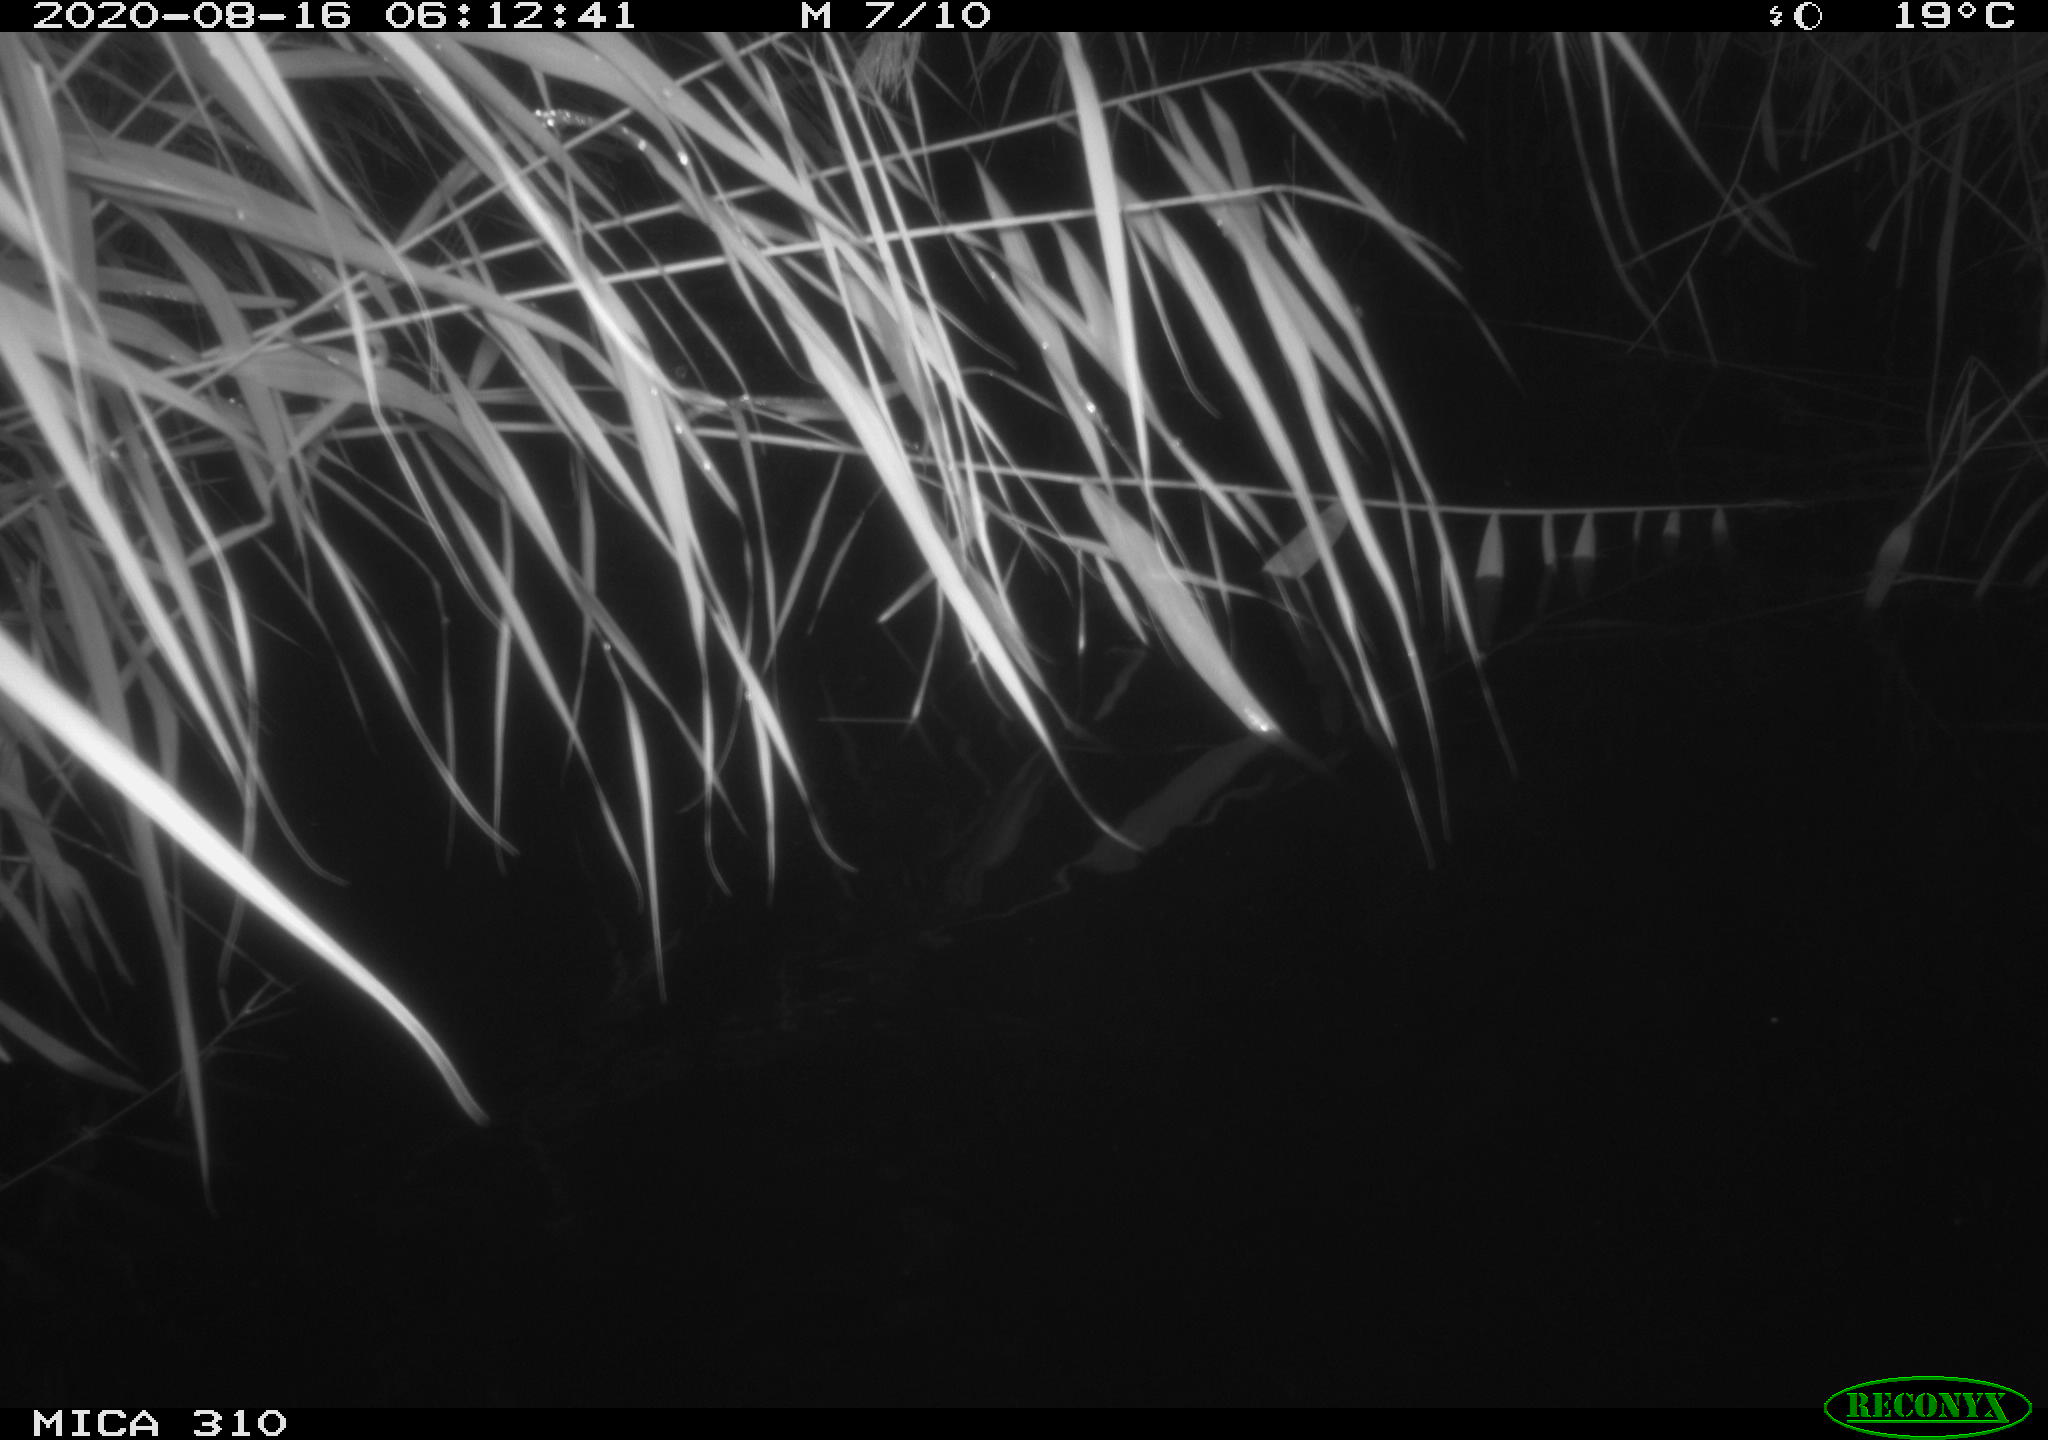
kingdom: Animalia
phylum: Chordata
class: Aves
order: Anseriformes
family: Anatidae
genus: Anas
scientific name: Anas platyrhynchos
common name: Mallard
